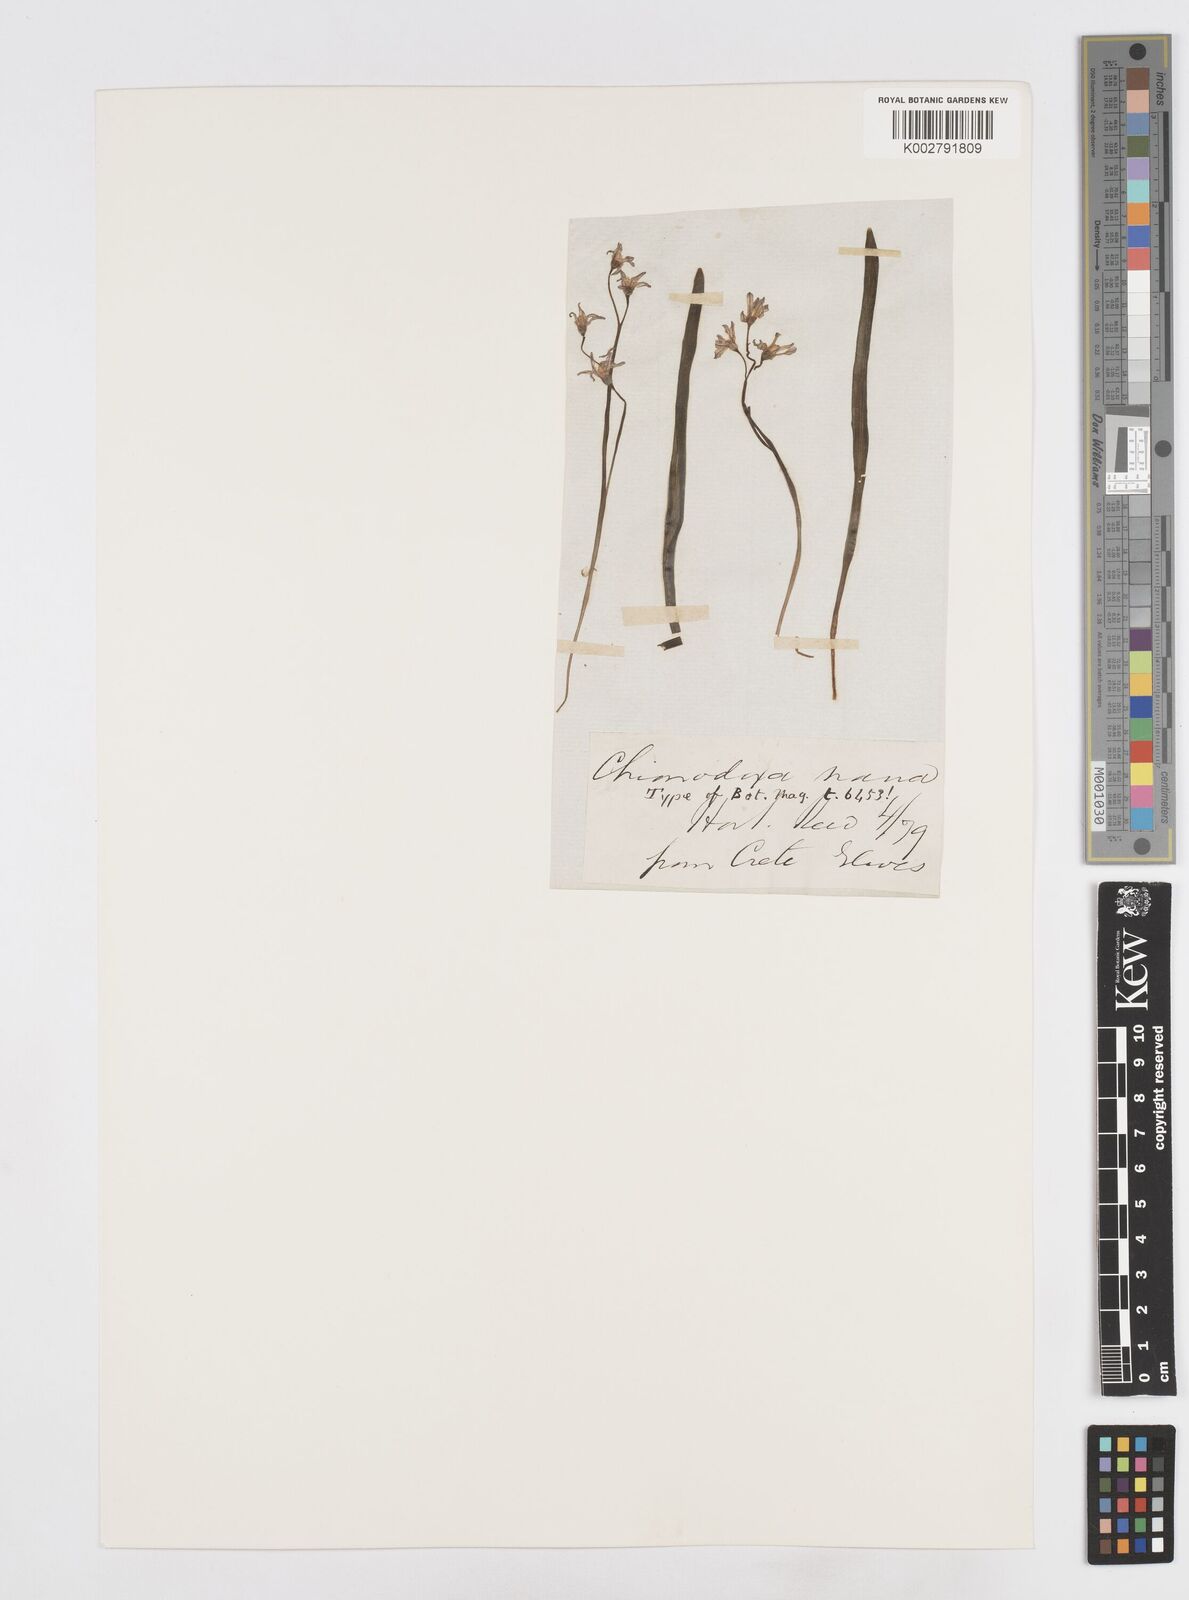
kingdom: Plantae
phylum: Tracheophyta
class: Liliopsida
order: Asparagales
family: Asparagaceae
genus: Scilla
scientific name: Scilla cretica
